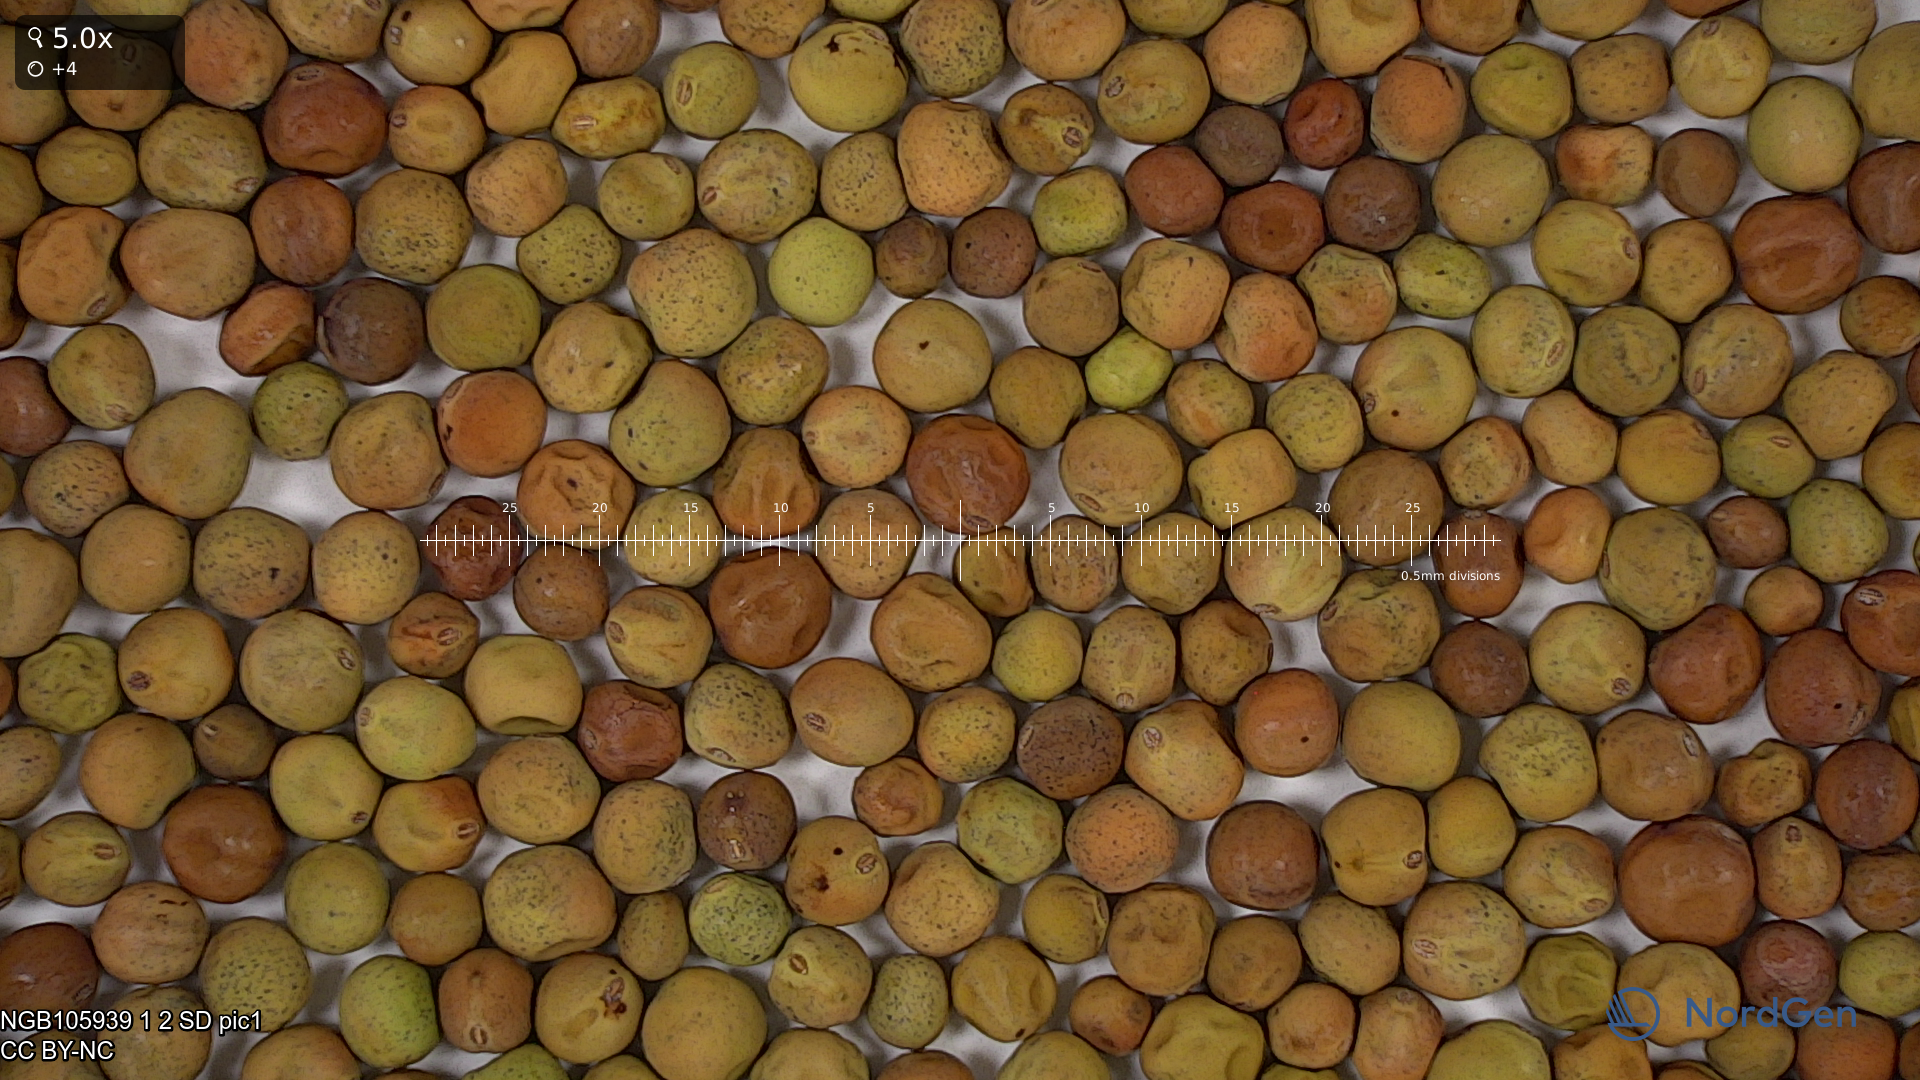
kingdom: Plantae
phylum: Tracheophyta
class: Magnoliopsida
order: Fabales
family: Fabaceae
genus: Lathyrus
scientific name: Lathyrus oleraceus
